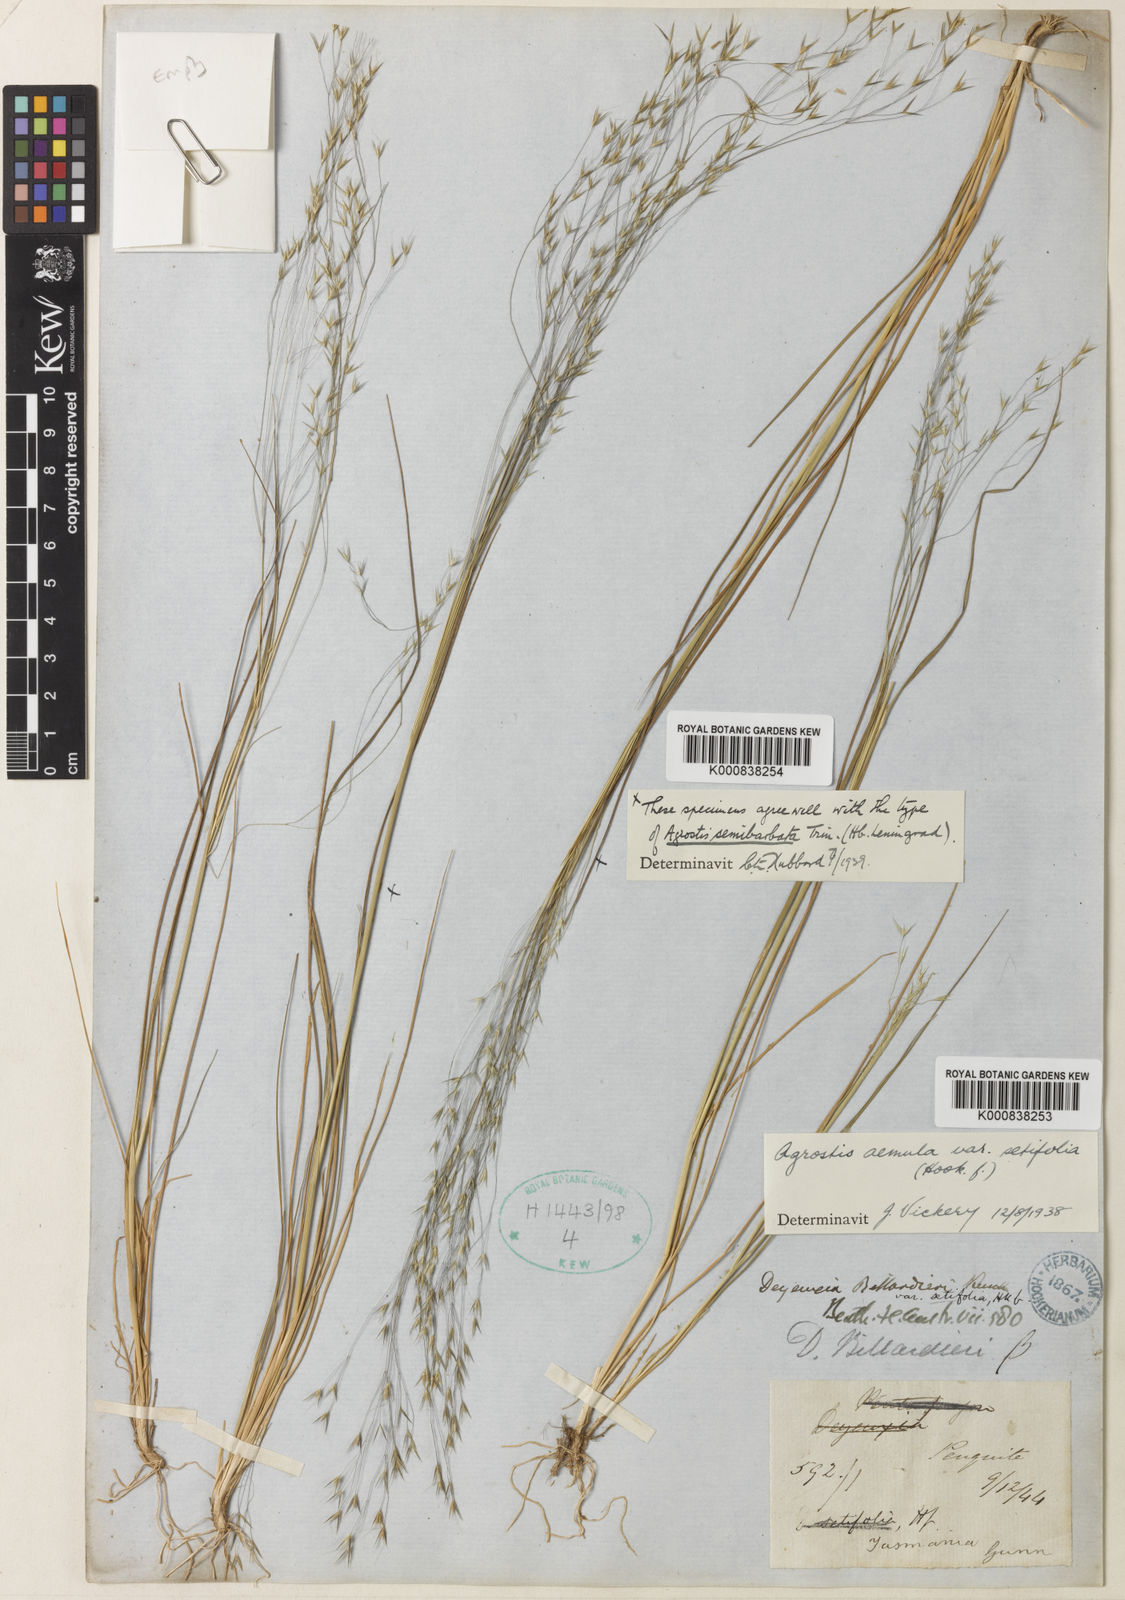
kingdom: Plantae
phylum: Tracheophyta
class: Liliopsida
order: Poales
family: Poaceae
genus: Lachnagrostis
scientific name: Lachnagrostis
